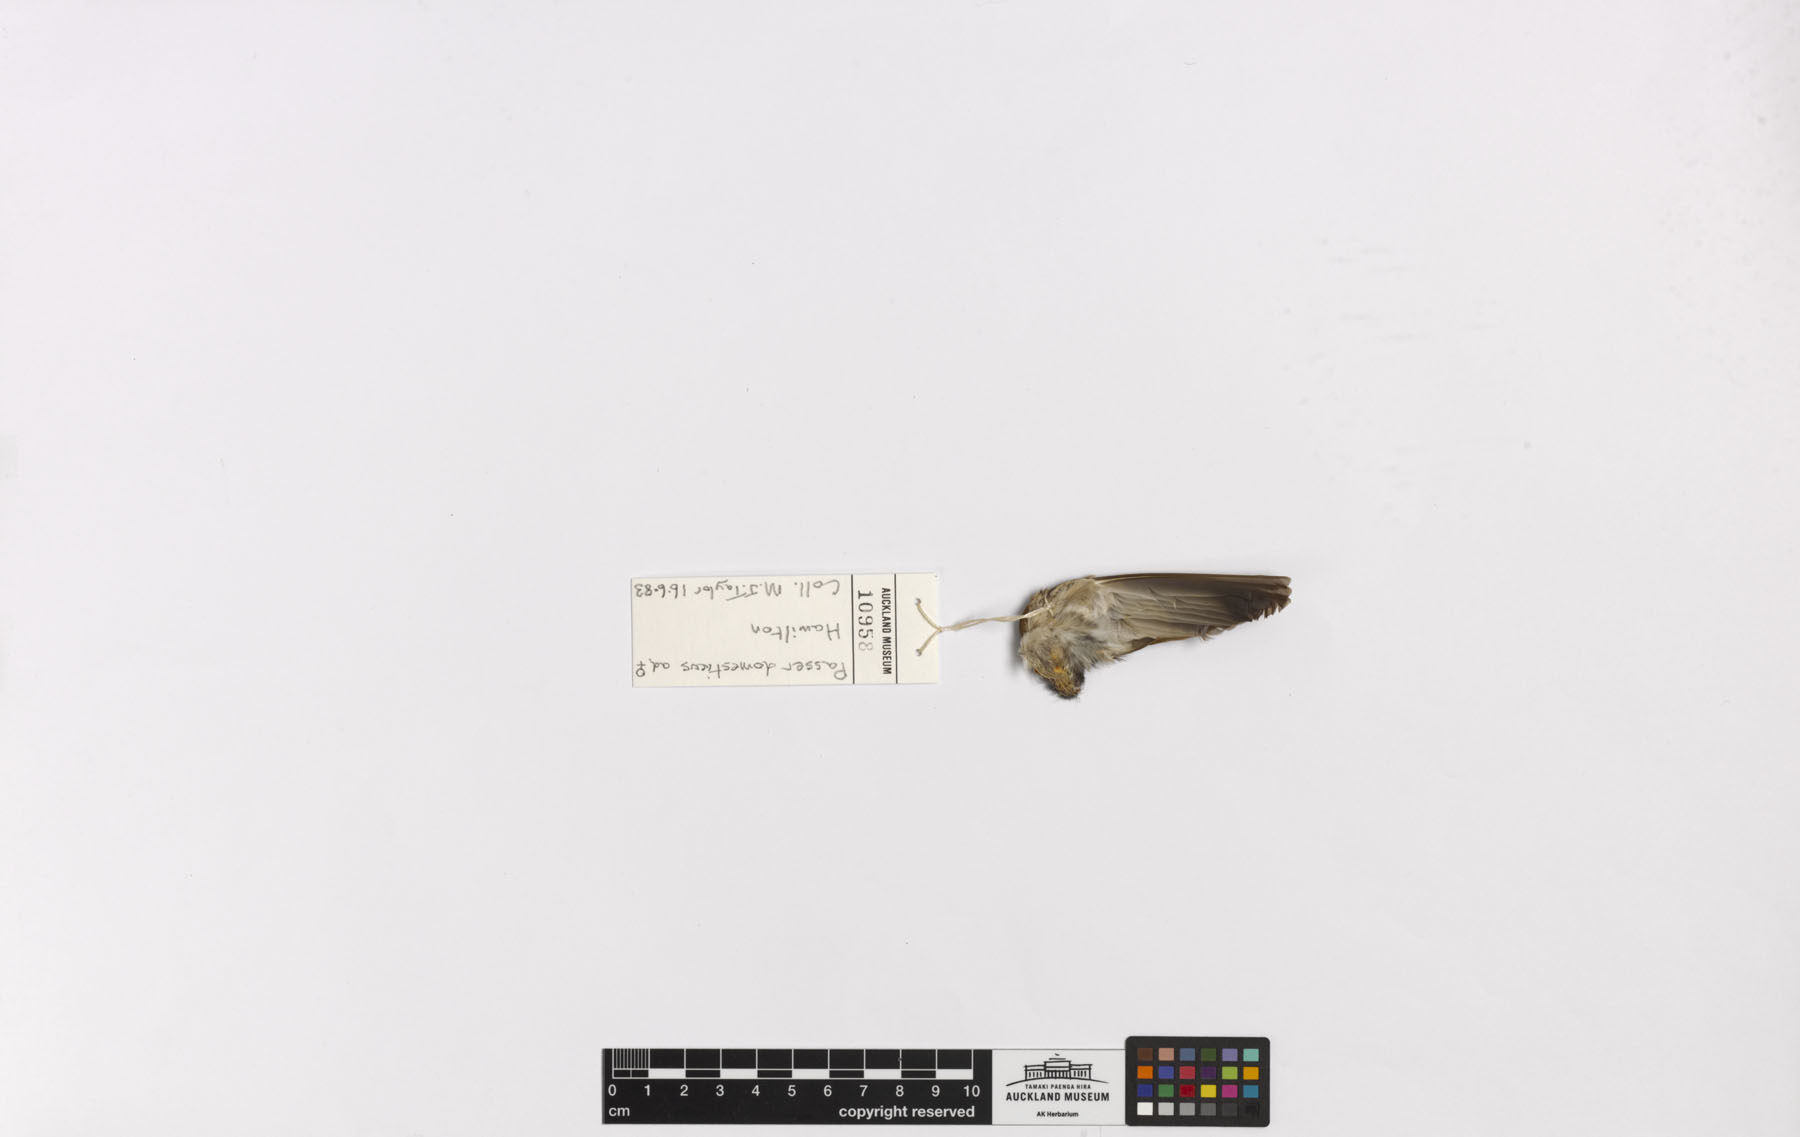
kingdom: Animalia
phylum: Chordata
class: Aves
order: Passeriformes
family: Passeridae
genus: Passer
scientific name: Passer domesticus
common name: House sparrow
